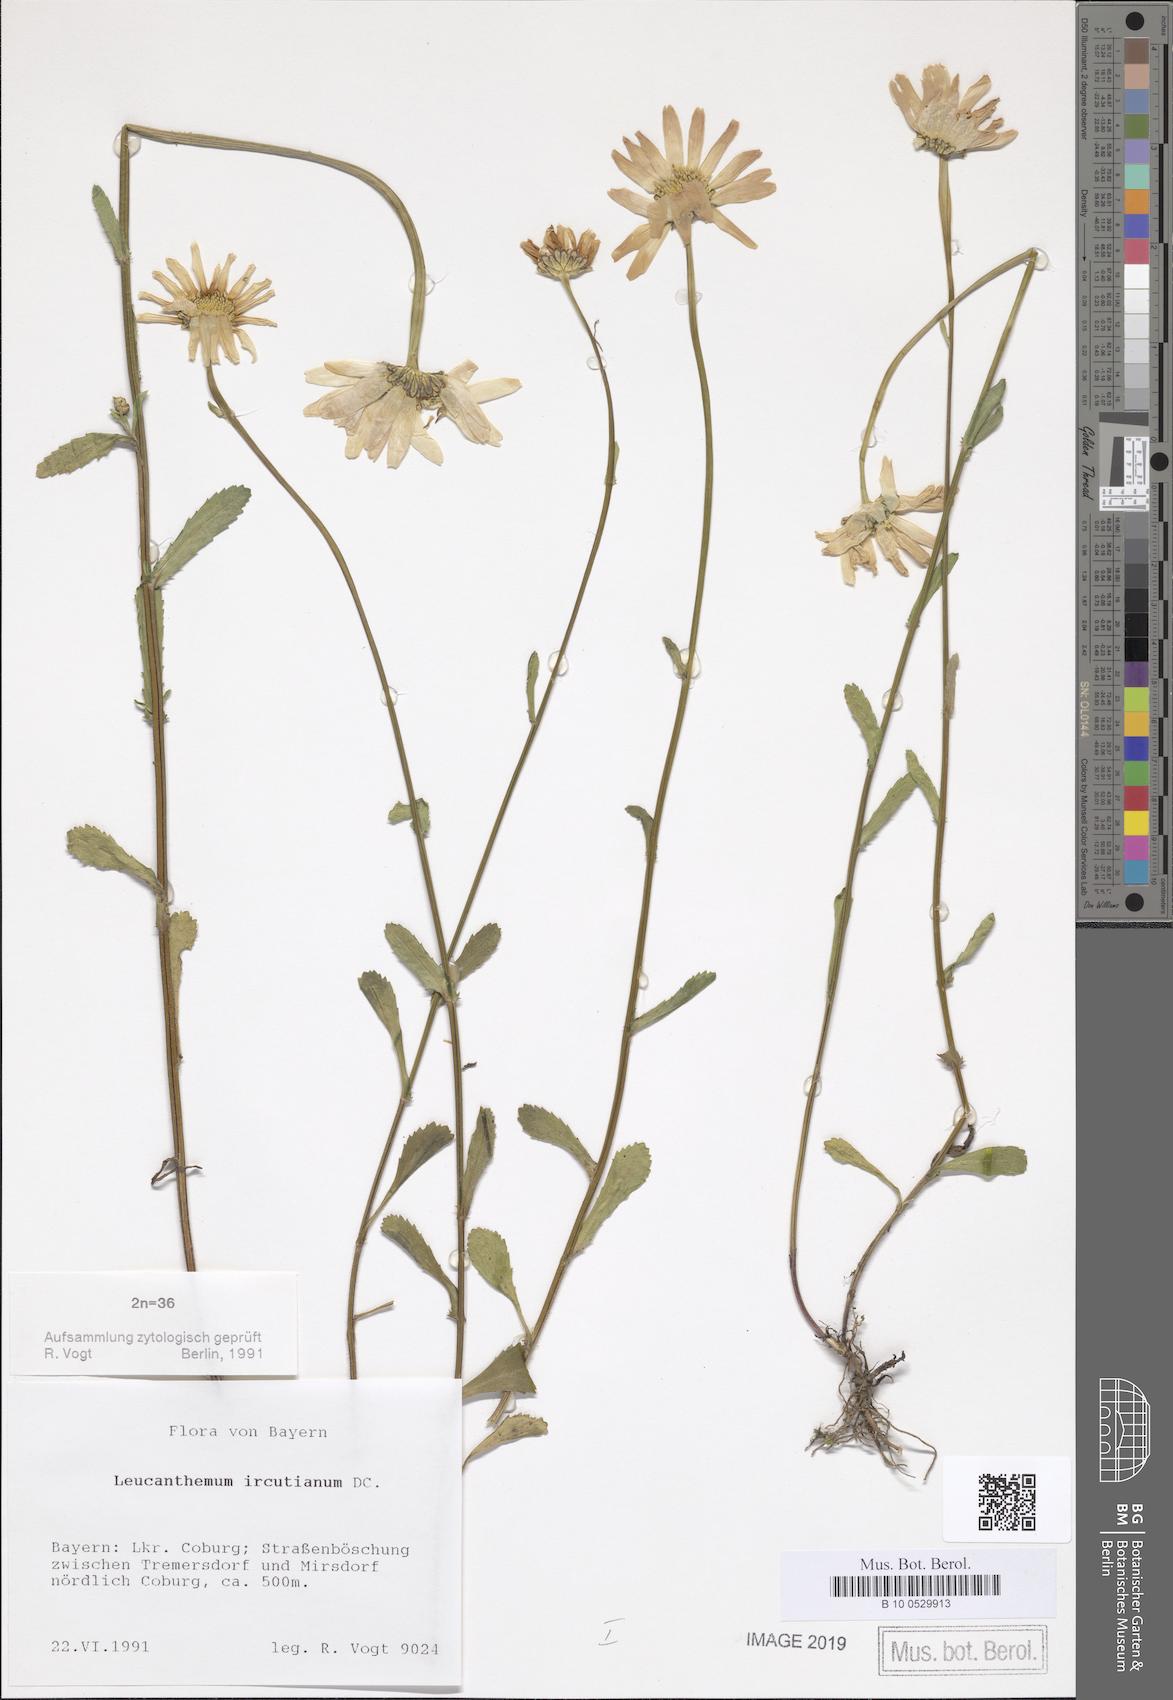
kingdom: Plantae
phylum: Tracheophyta
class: Magnoliopsida
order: Asterales
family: Asteraceae
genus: Leucanthemum
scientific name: Leucanthemum ircutianum
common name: Daisy
